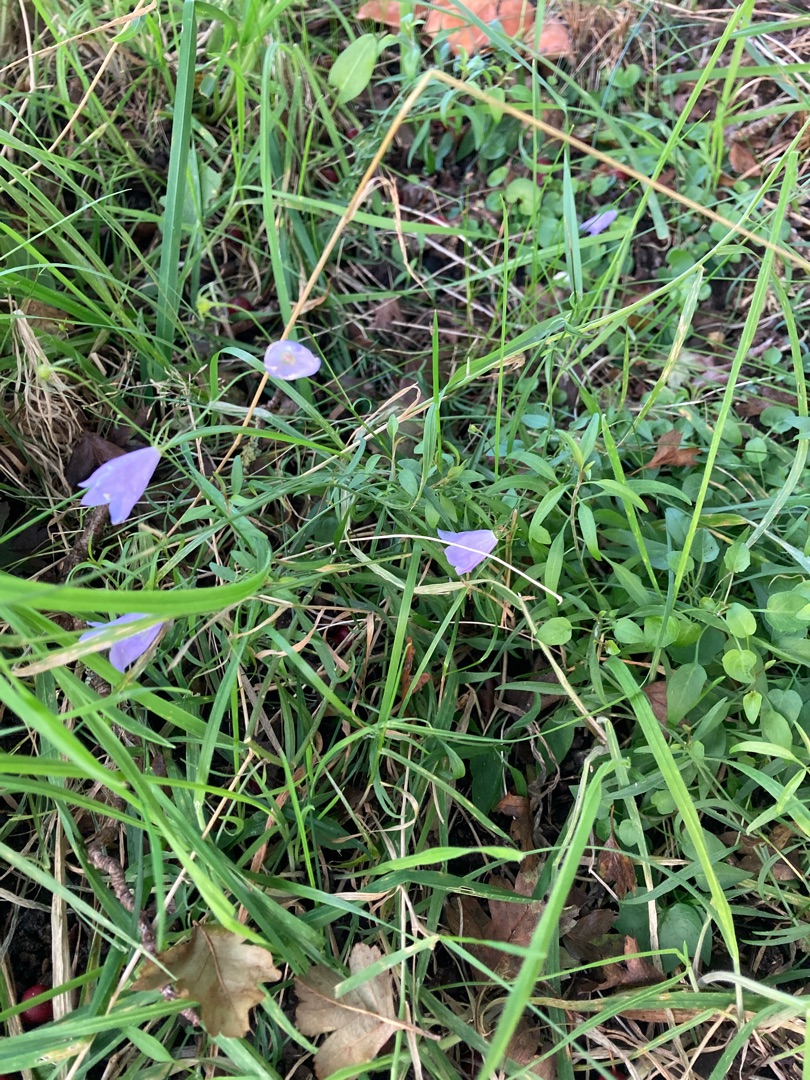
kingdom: Plantae
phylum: Tracheophyta
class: Magnoliopsida
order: Asterales
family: Campanulaceae
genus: Campanula
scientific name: Campanula rotundifolia
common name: Liden klokke
